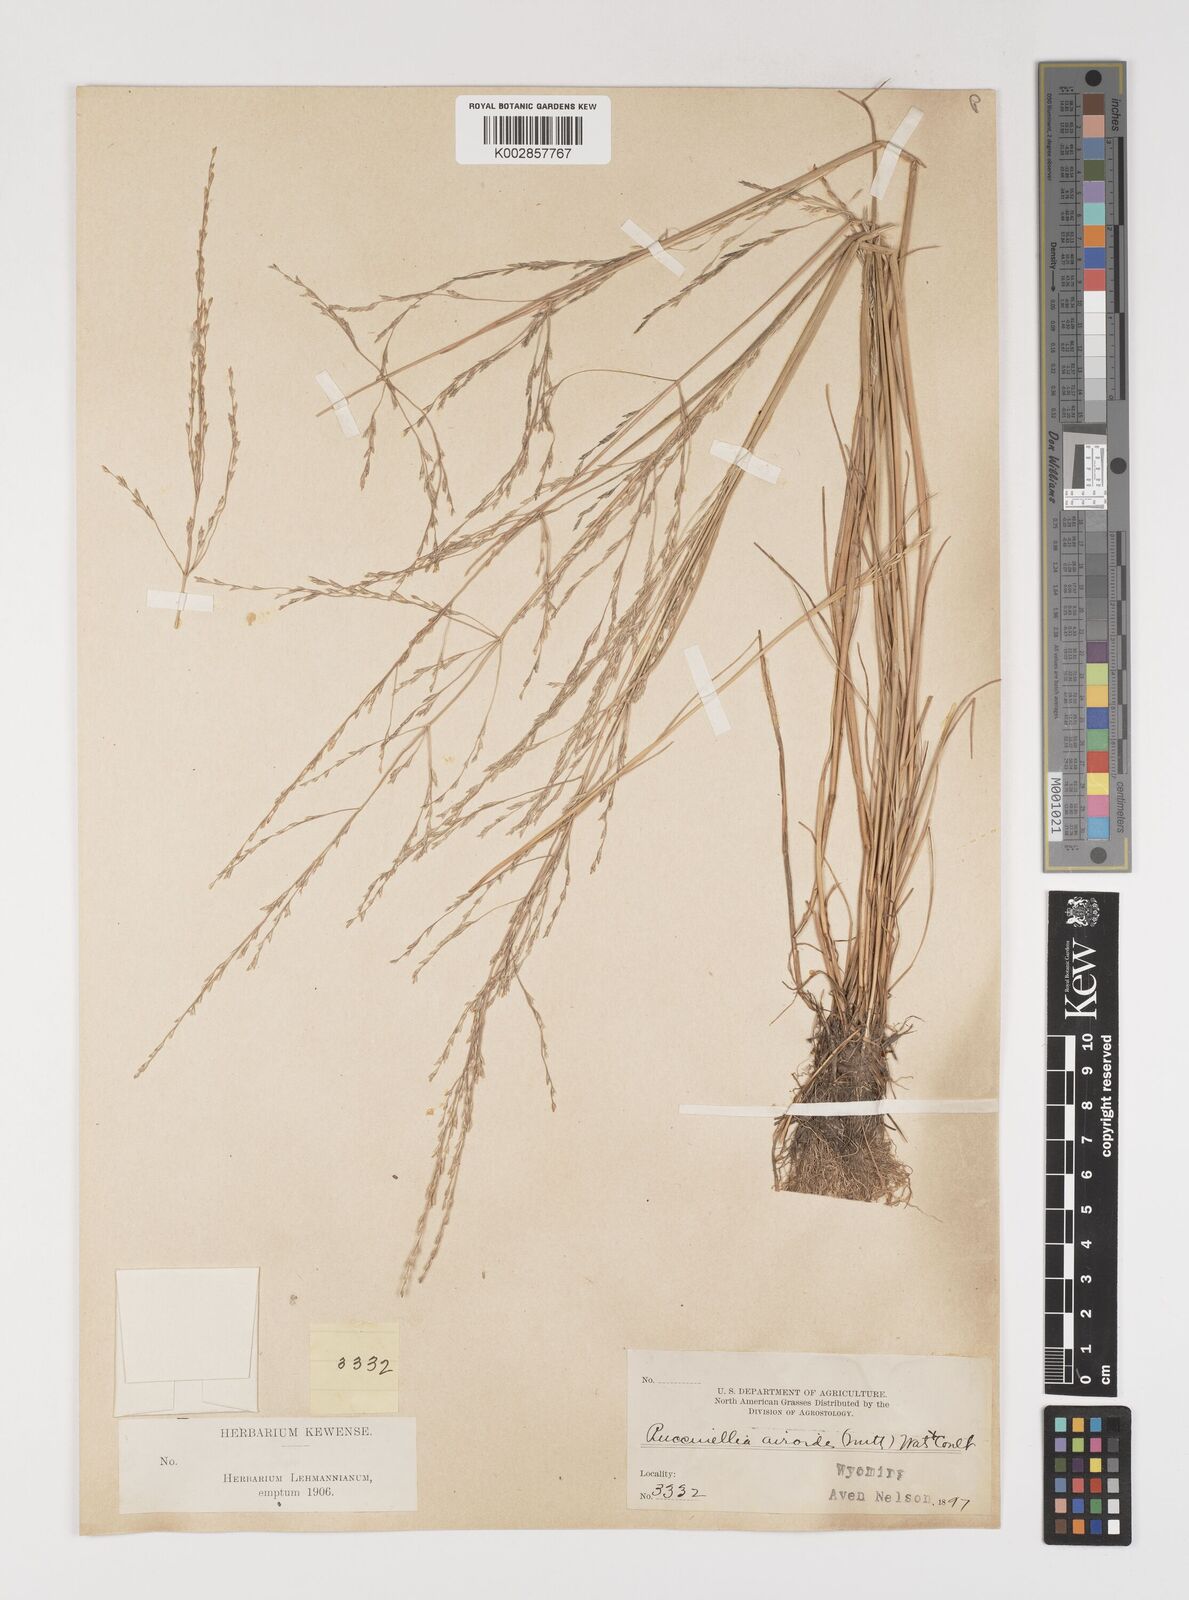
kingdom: Plantae
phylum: Tracheophyta
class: Liliopsida
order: Poales
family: Poaceae
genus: Puccinellia
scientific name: Puccinellia nuttalliana
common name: Nuttall's alkali grass
